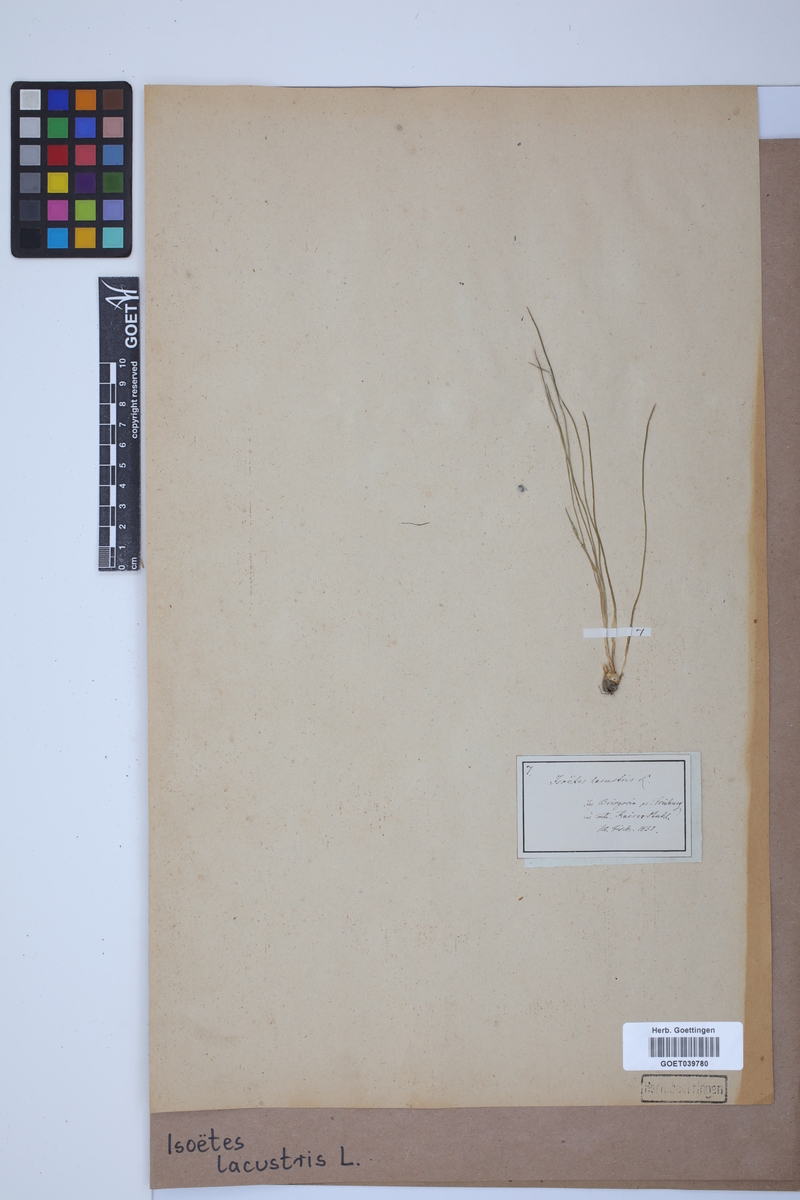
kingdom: Plantae
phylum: Tracheophyta
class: Lycopodiopsida
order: Isoetales
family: Isoetaceae
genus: Isoetes
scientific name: Isoetes lacustris
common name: Common quillwort
